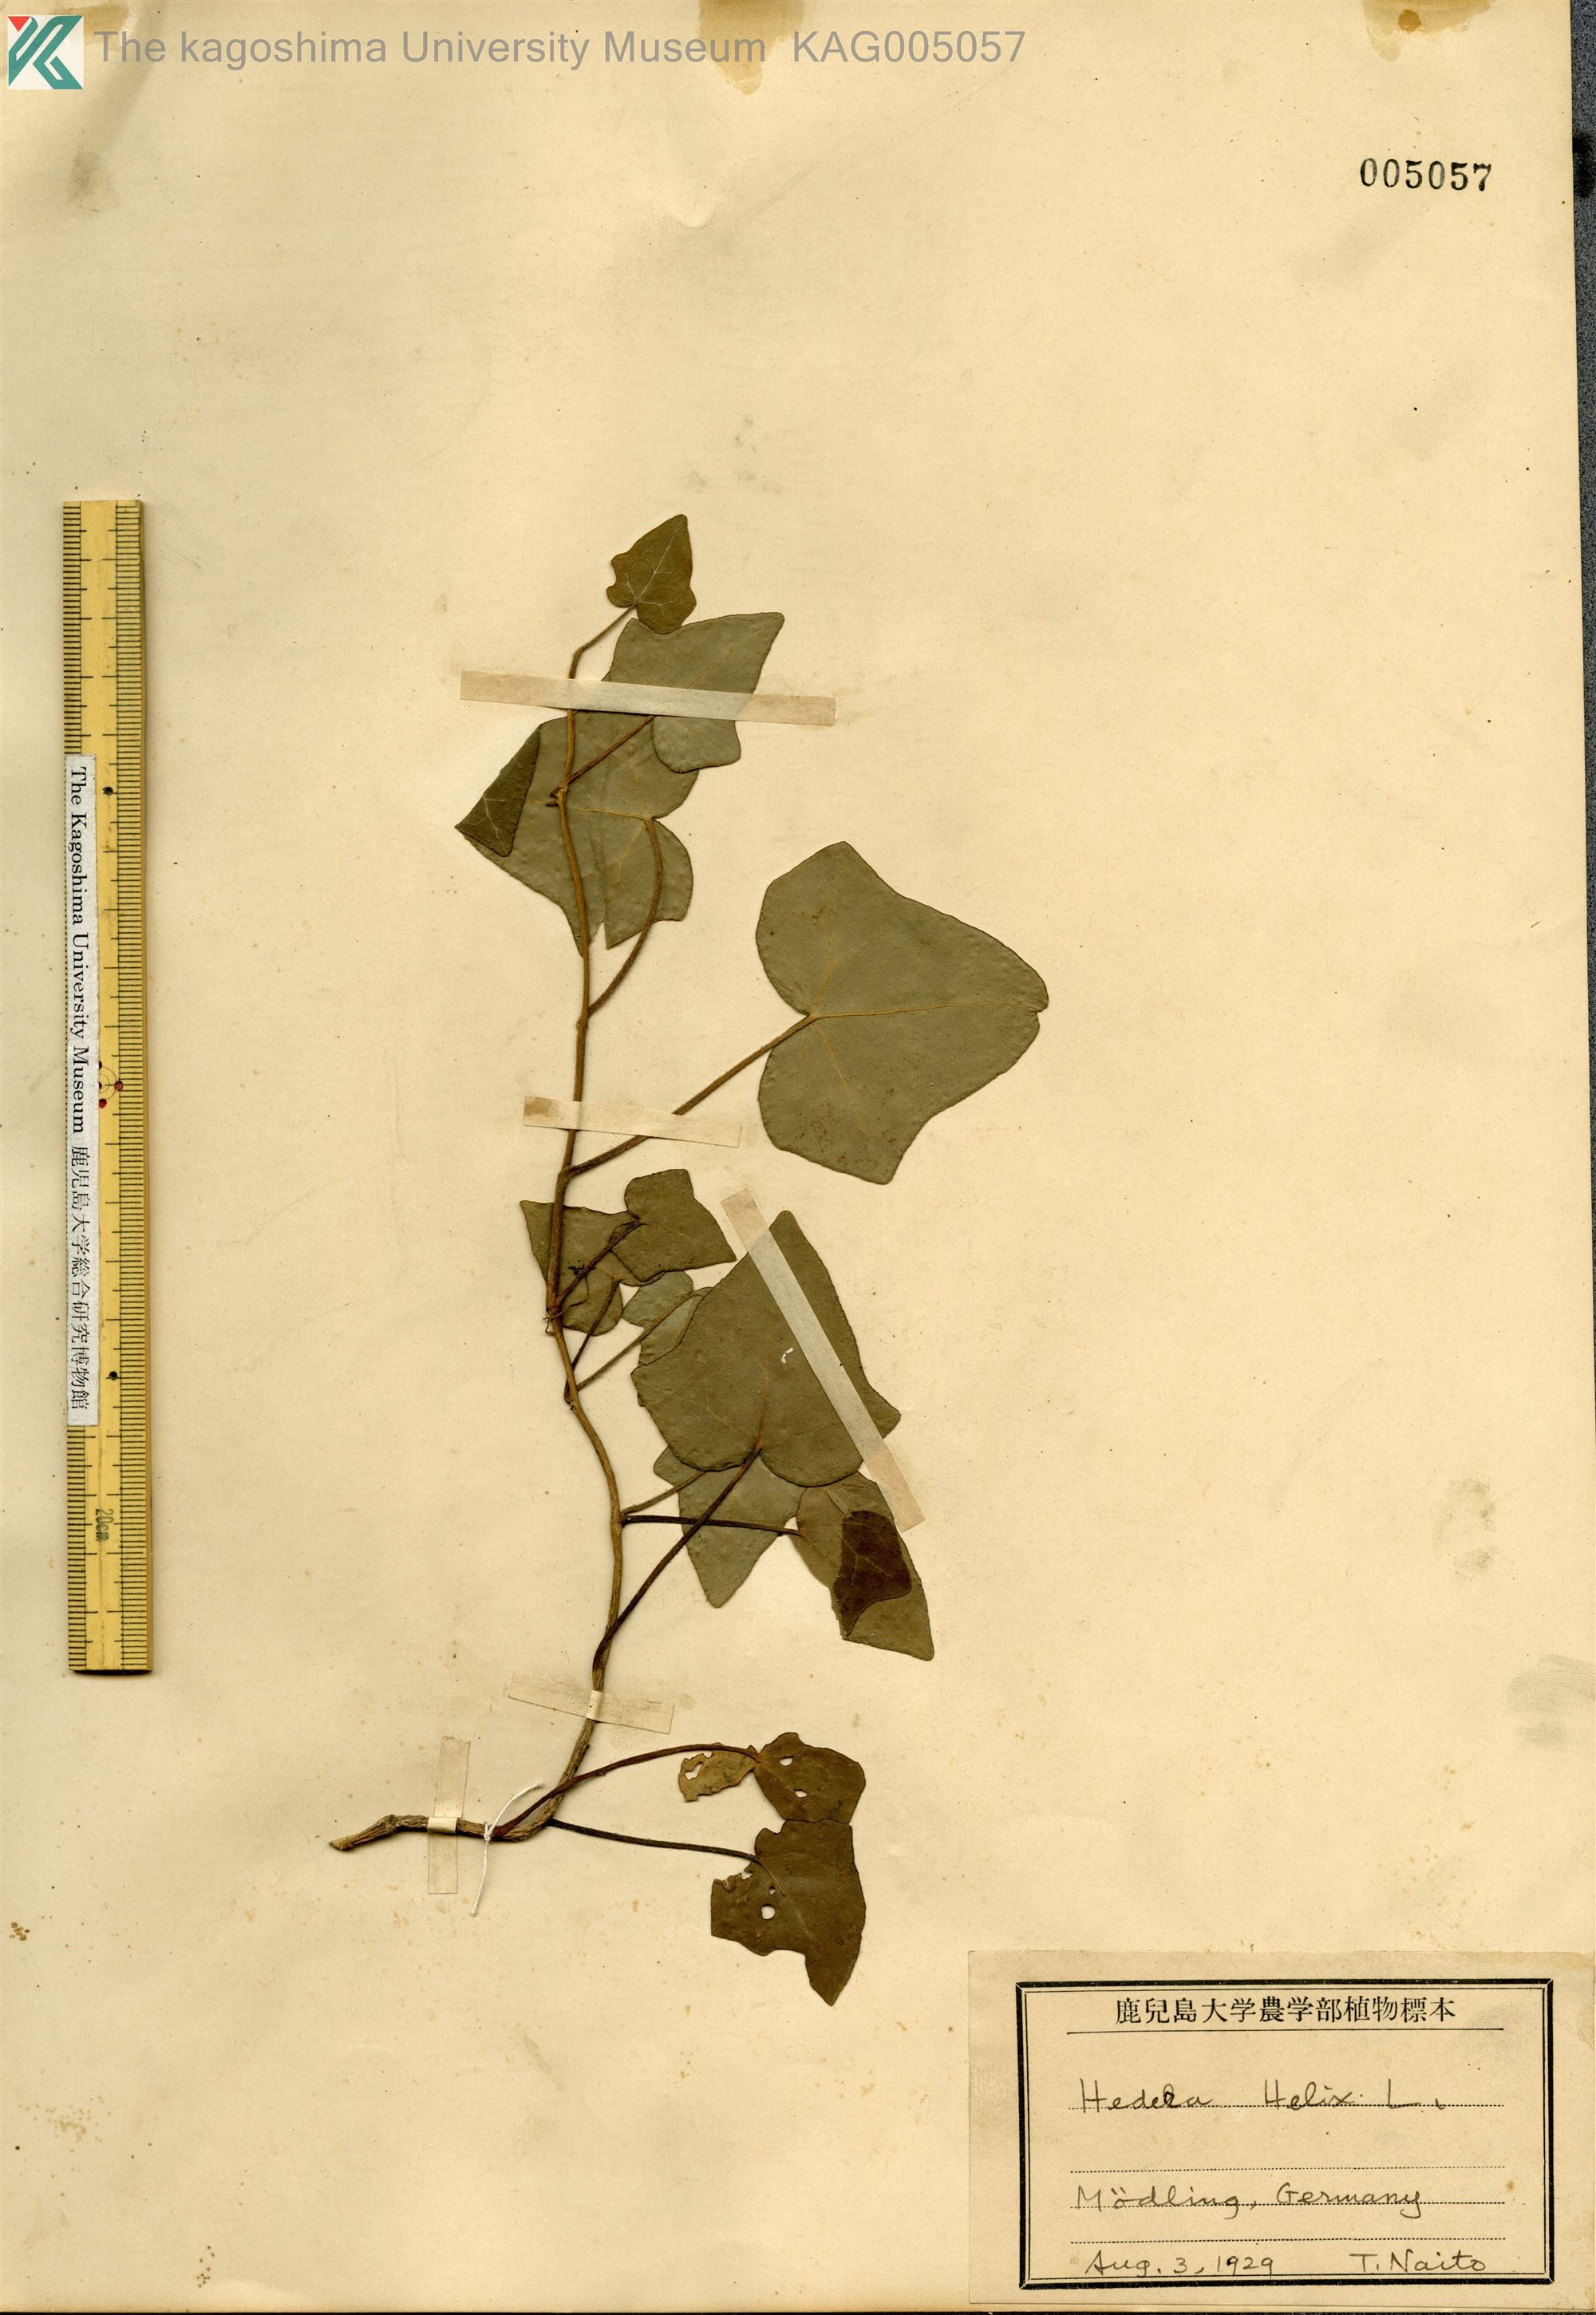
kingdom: Plantae
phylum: Tracheophyta
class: Magnoliopsida
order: Apiales
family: Araliaceae
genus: Hedera
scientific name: Hedera helix
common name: Ivy
